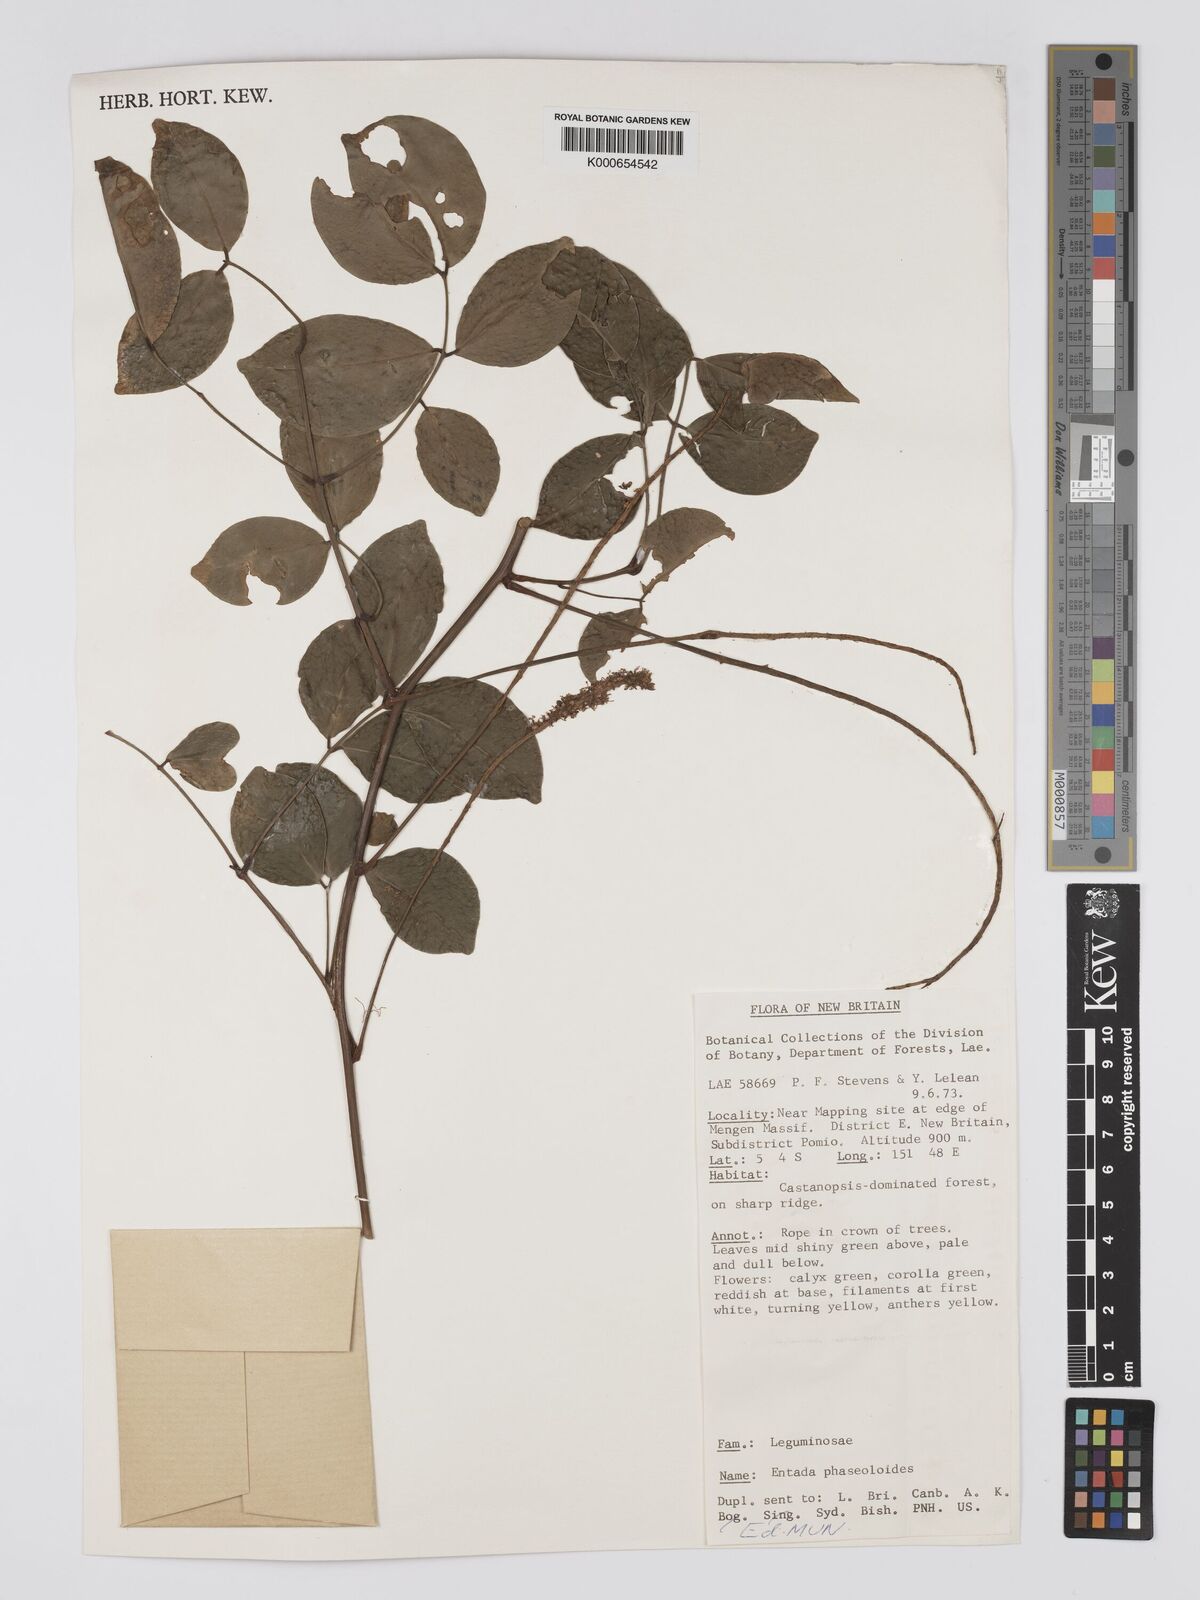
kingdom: Plantae
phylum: Tracheophyta
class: Magnoliopsida
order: Fabales
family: Fabaceae
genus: Entada
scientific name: Entada phaseoloides
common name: Matchbox-bean
